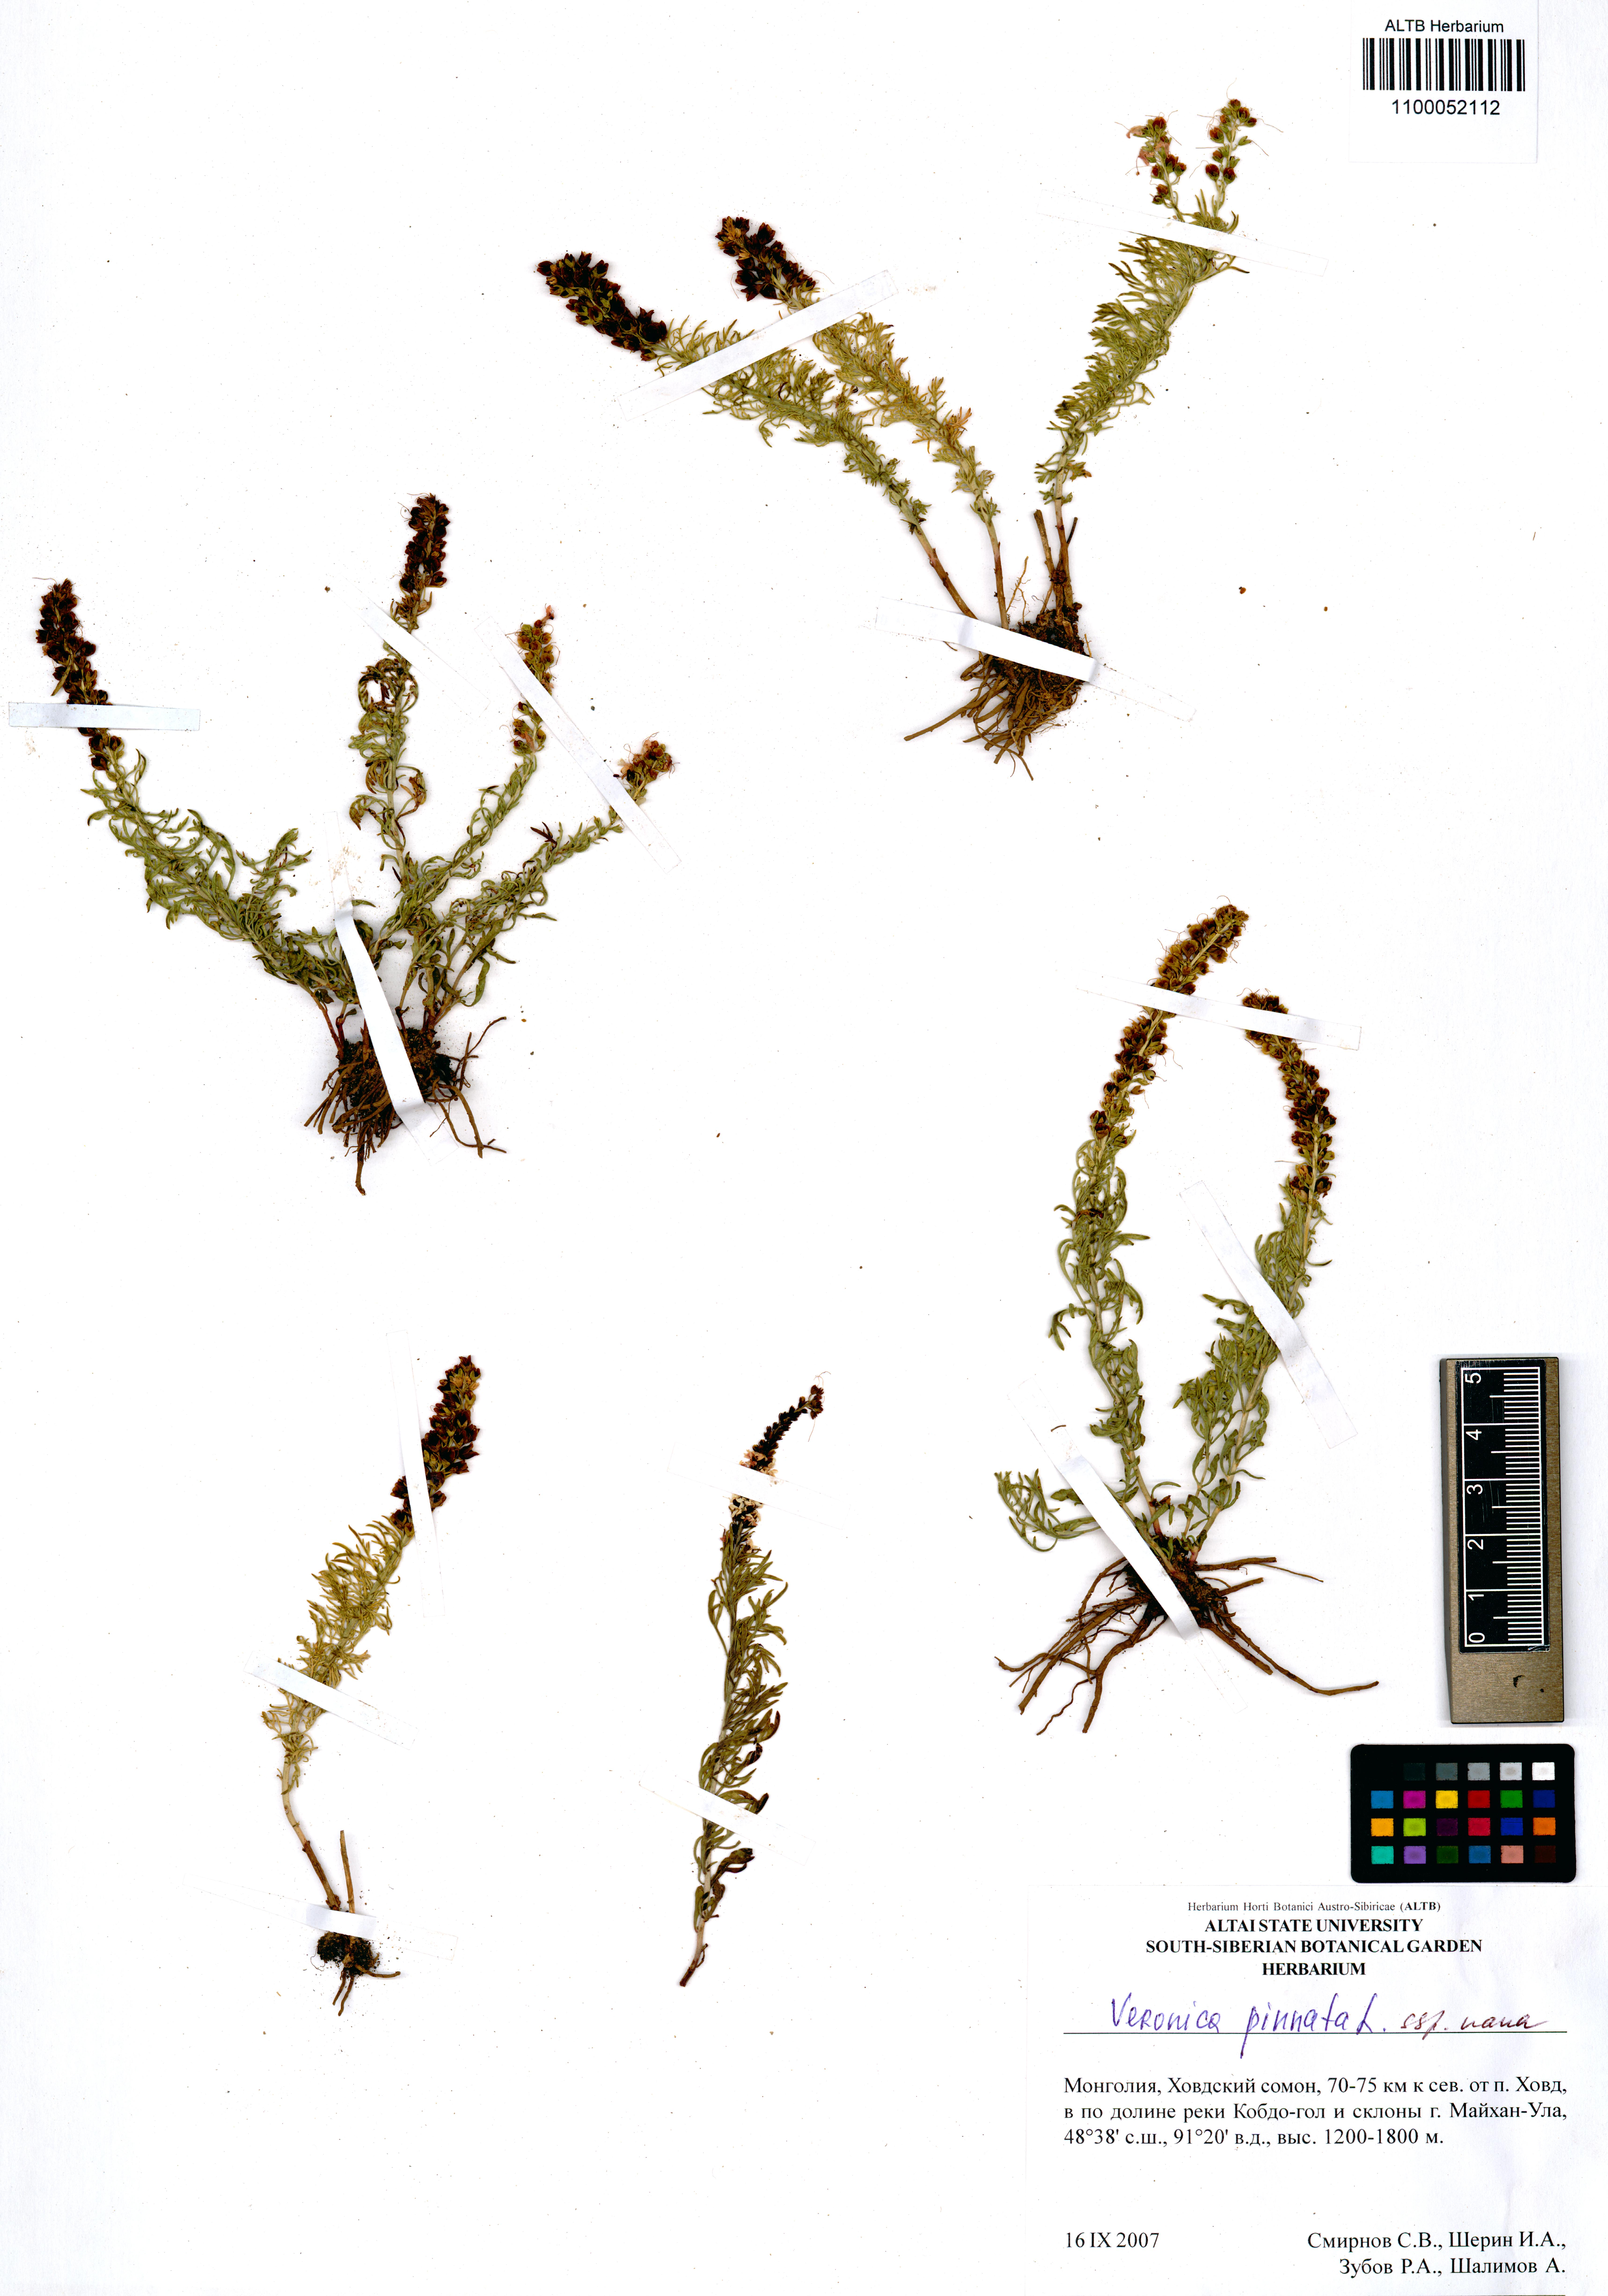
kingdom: Plantae
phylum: Tracheophyta
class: Magnoliopsida
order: Lamiales
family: Plantaginaceae
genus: Veronica
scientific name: Veronica pinnata
